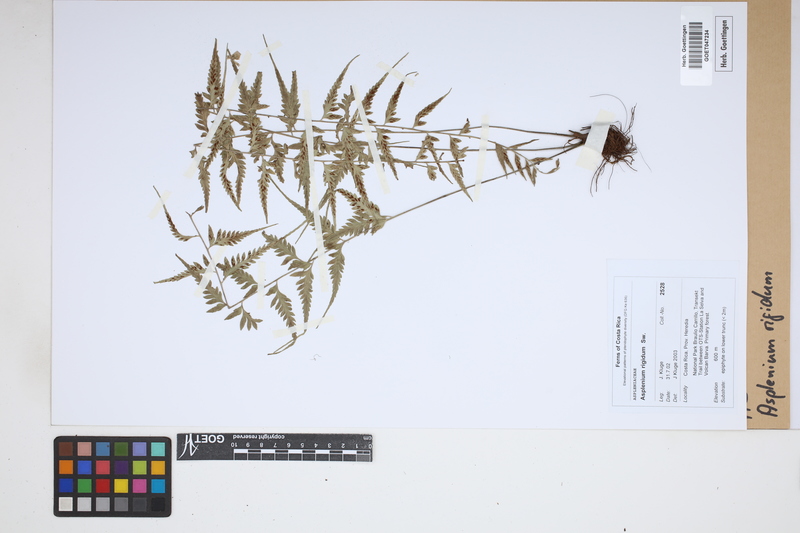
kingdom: Plantae
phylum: Tracheophyta
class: Polypodiopsida
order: Polypodiales
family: Aspleniaceae
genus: Asplenium
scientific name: Asplenium cuspidatum
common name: Eared spleenwort
